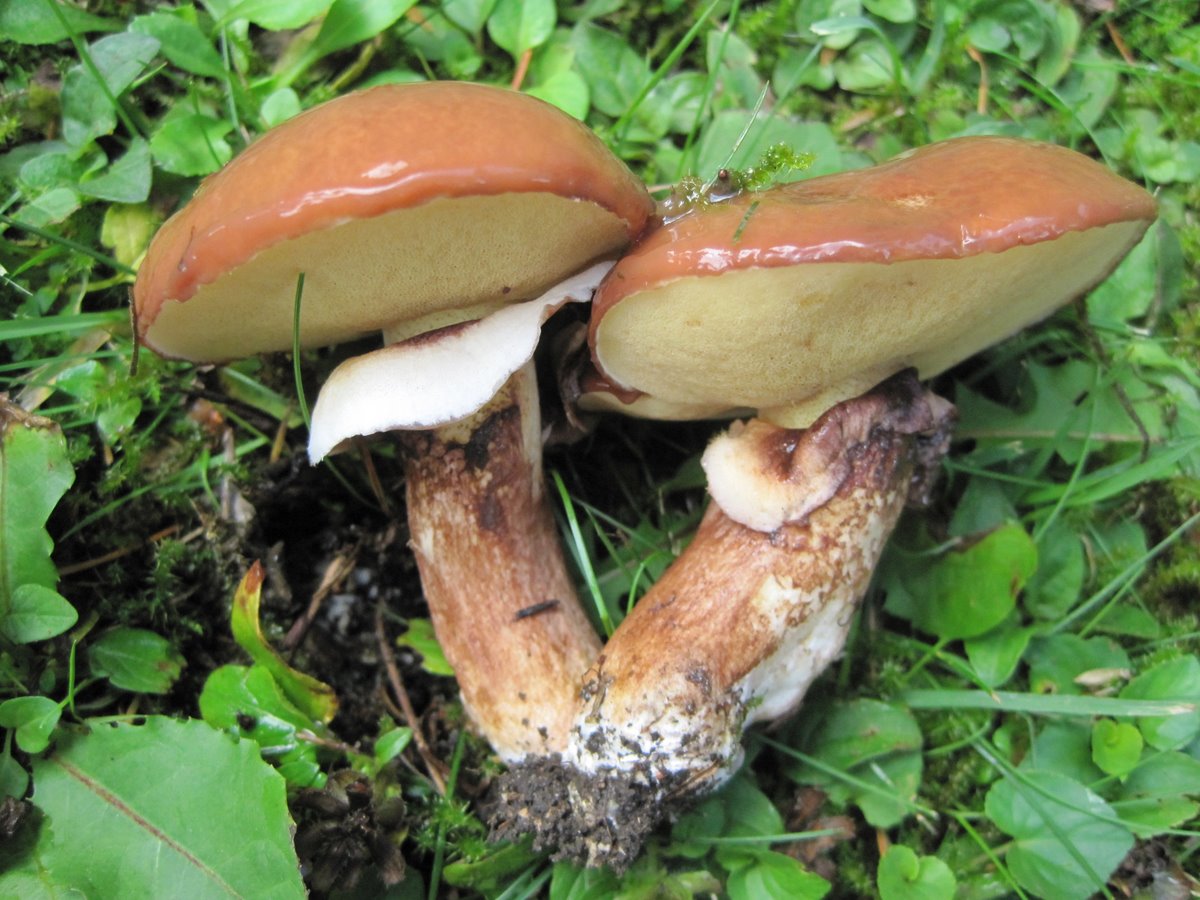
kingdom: Fungi
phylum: Basidiomycota
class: Agaricomycetes
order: Boletales
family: Suillaceae
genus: Suillus
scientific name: Suillus luteus
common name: brungul slimrørhat
